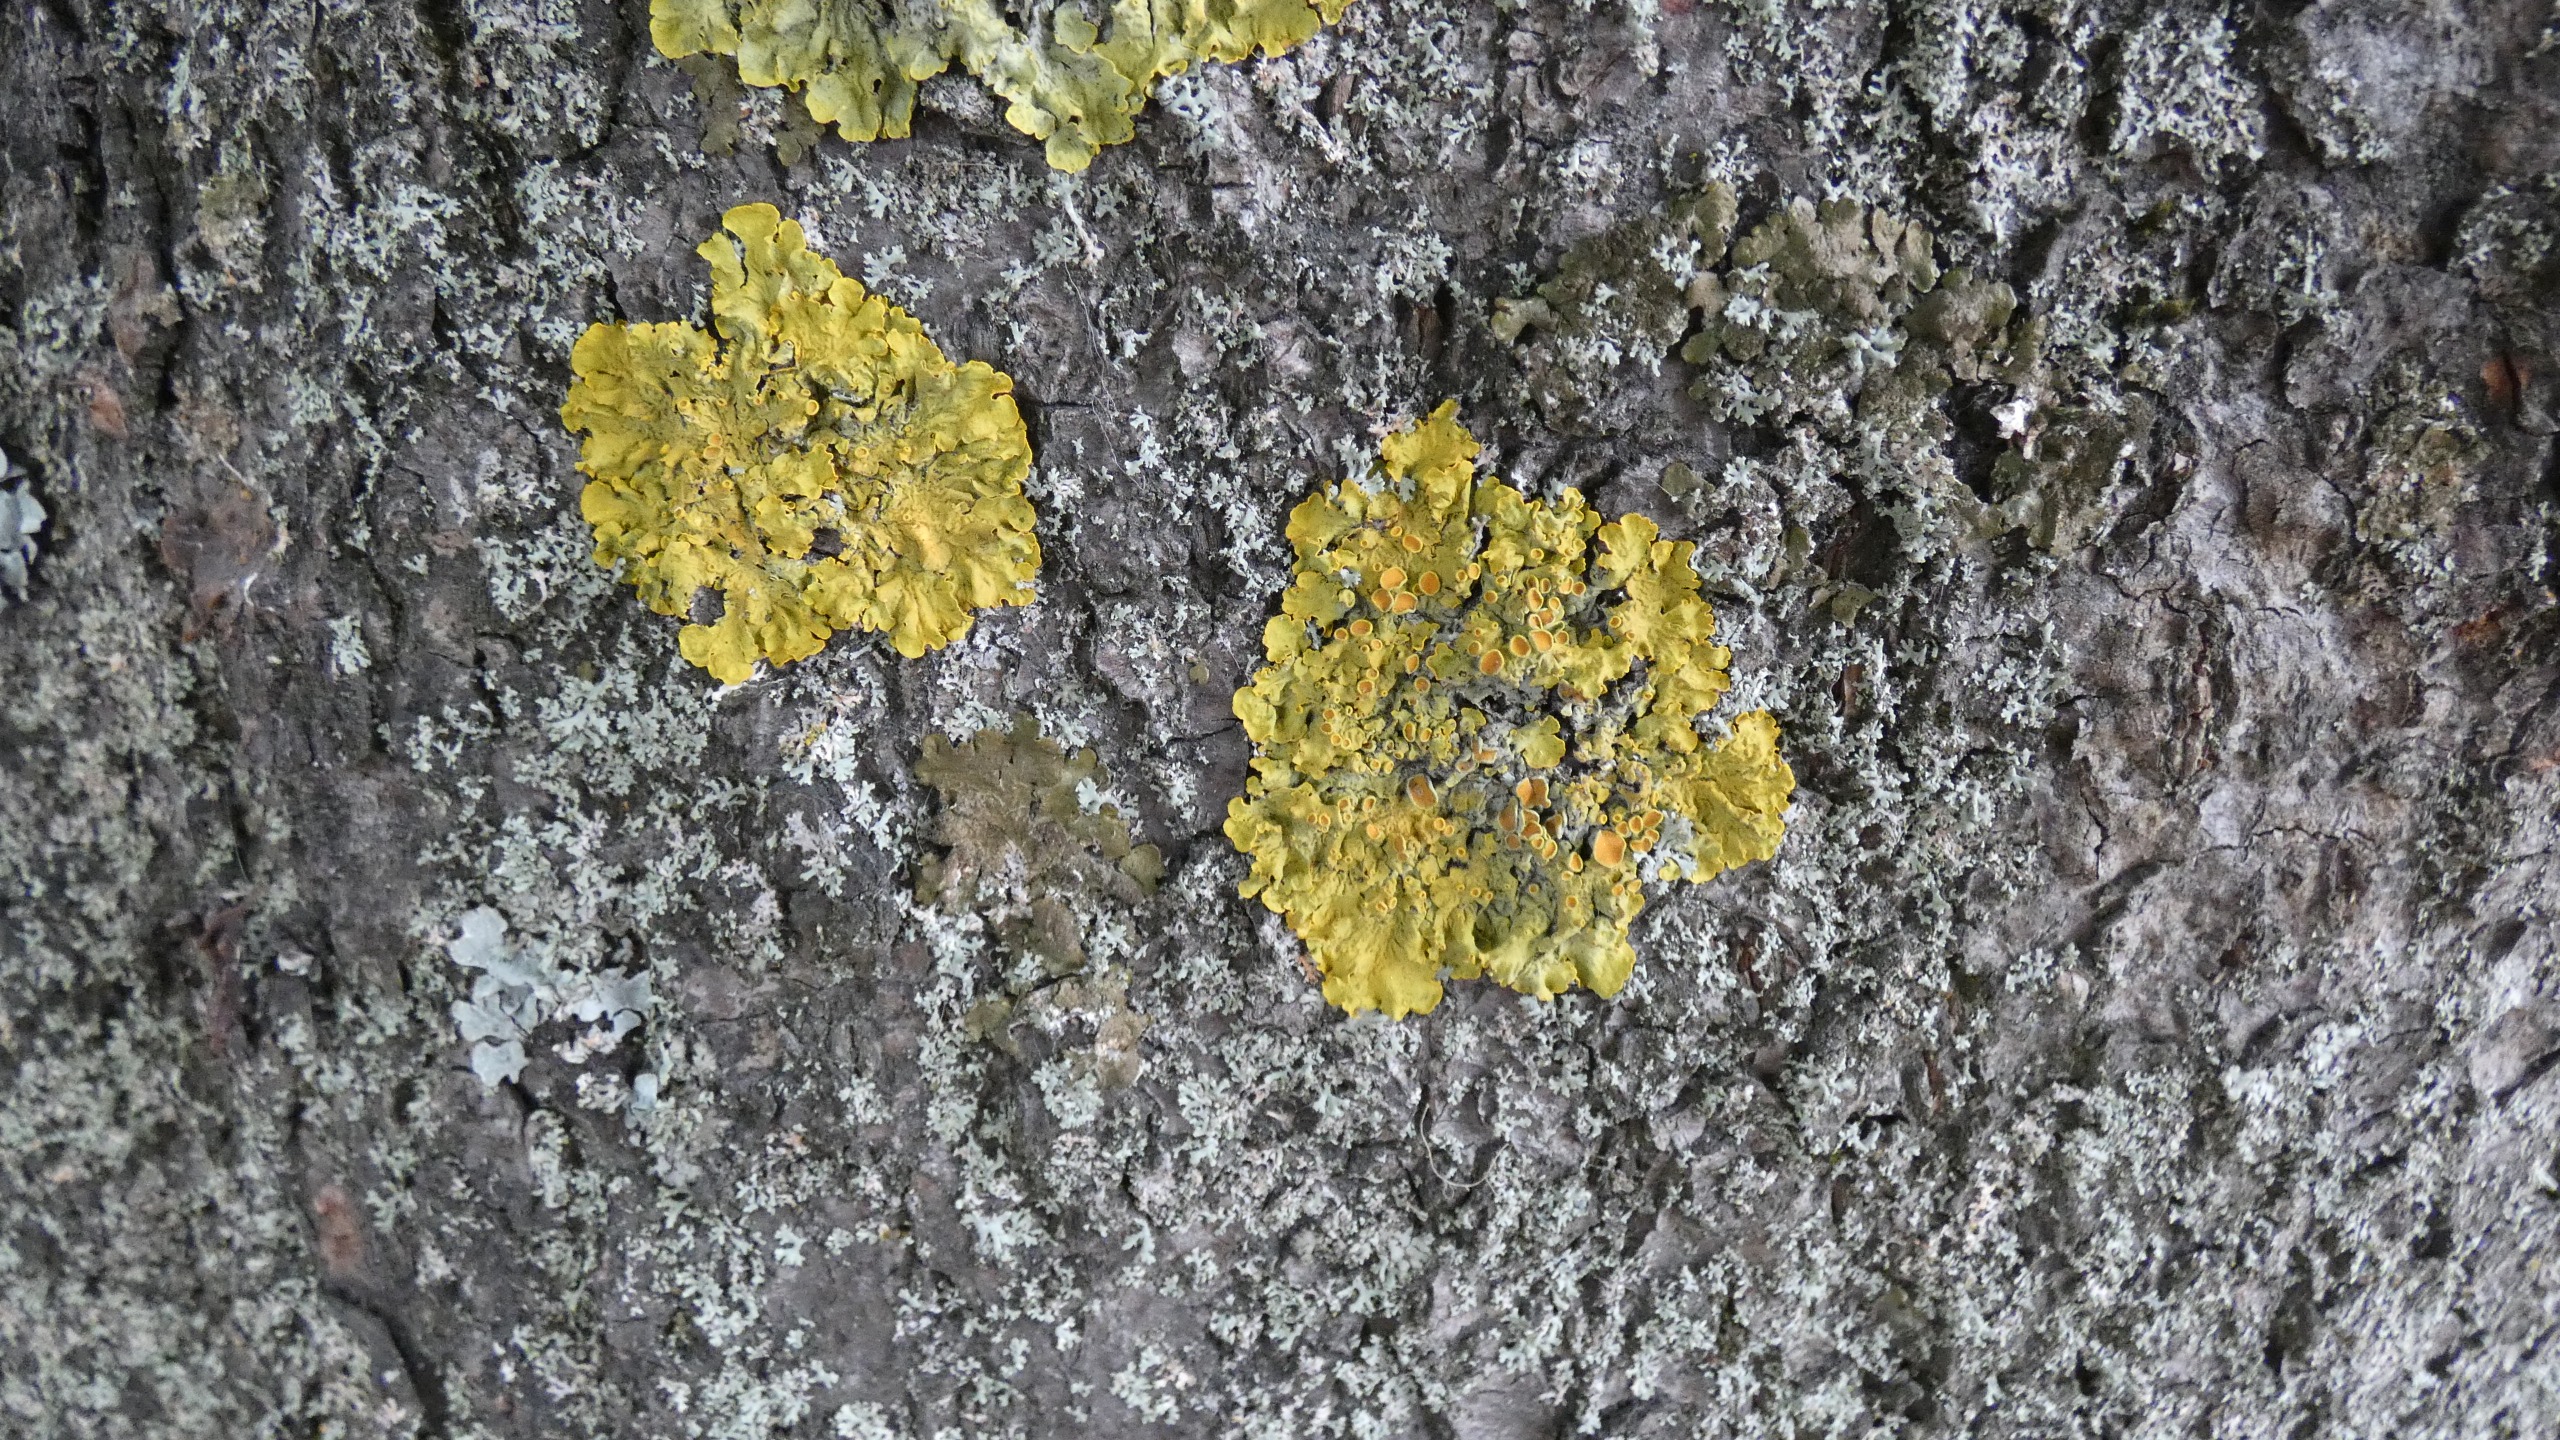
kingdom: Fungi
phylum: Ascomycota
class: Lecanoromycetes
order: Teloschistales
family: Teloschistaceae
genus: Xanthoria
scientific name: Xanthoria parietina
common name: Almindelig væggelav
